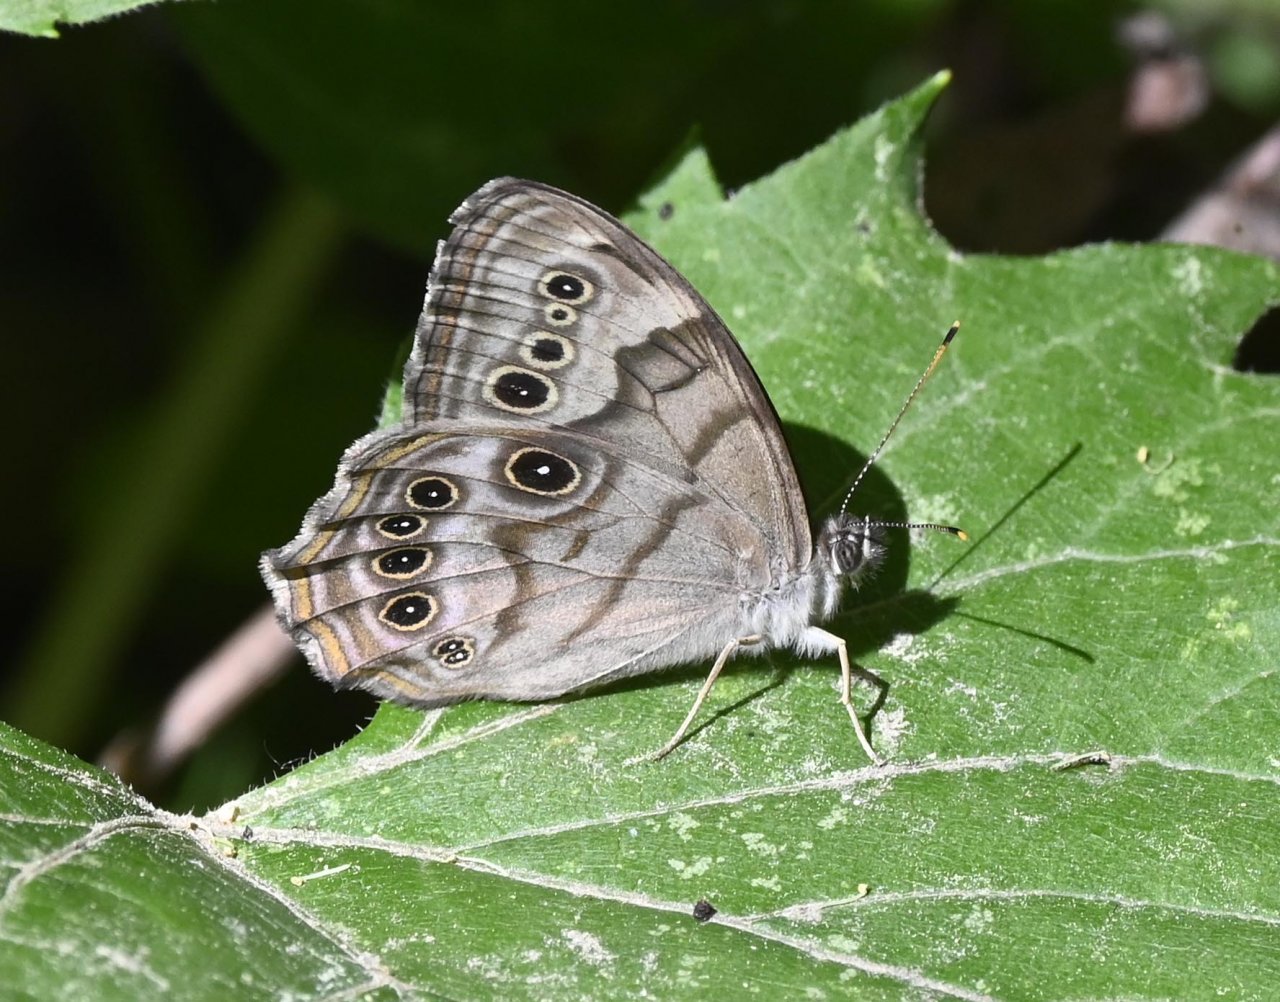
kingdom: Animalia
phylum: Arthropoda
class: Insecta
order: Lepidoptera
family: Nymphalidae
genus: Lethe
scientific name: Lethe anthedon
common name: Northern Pearly-Eye
